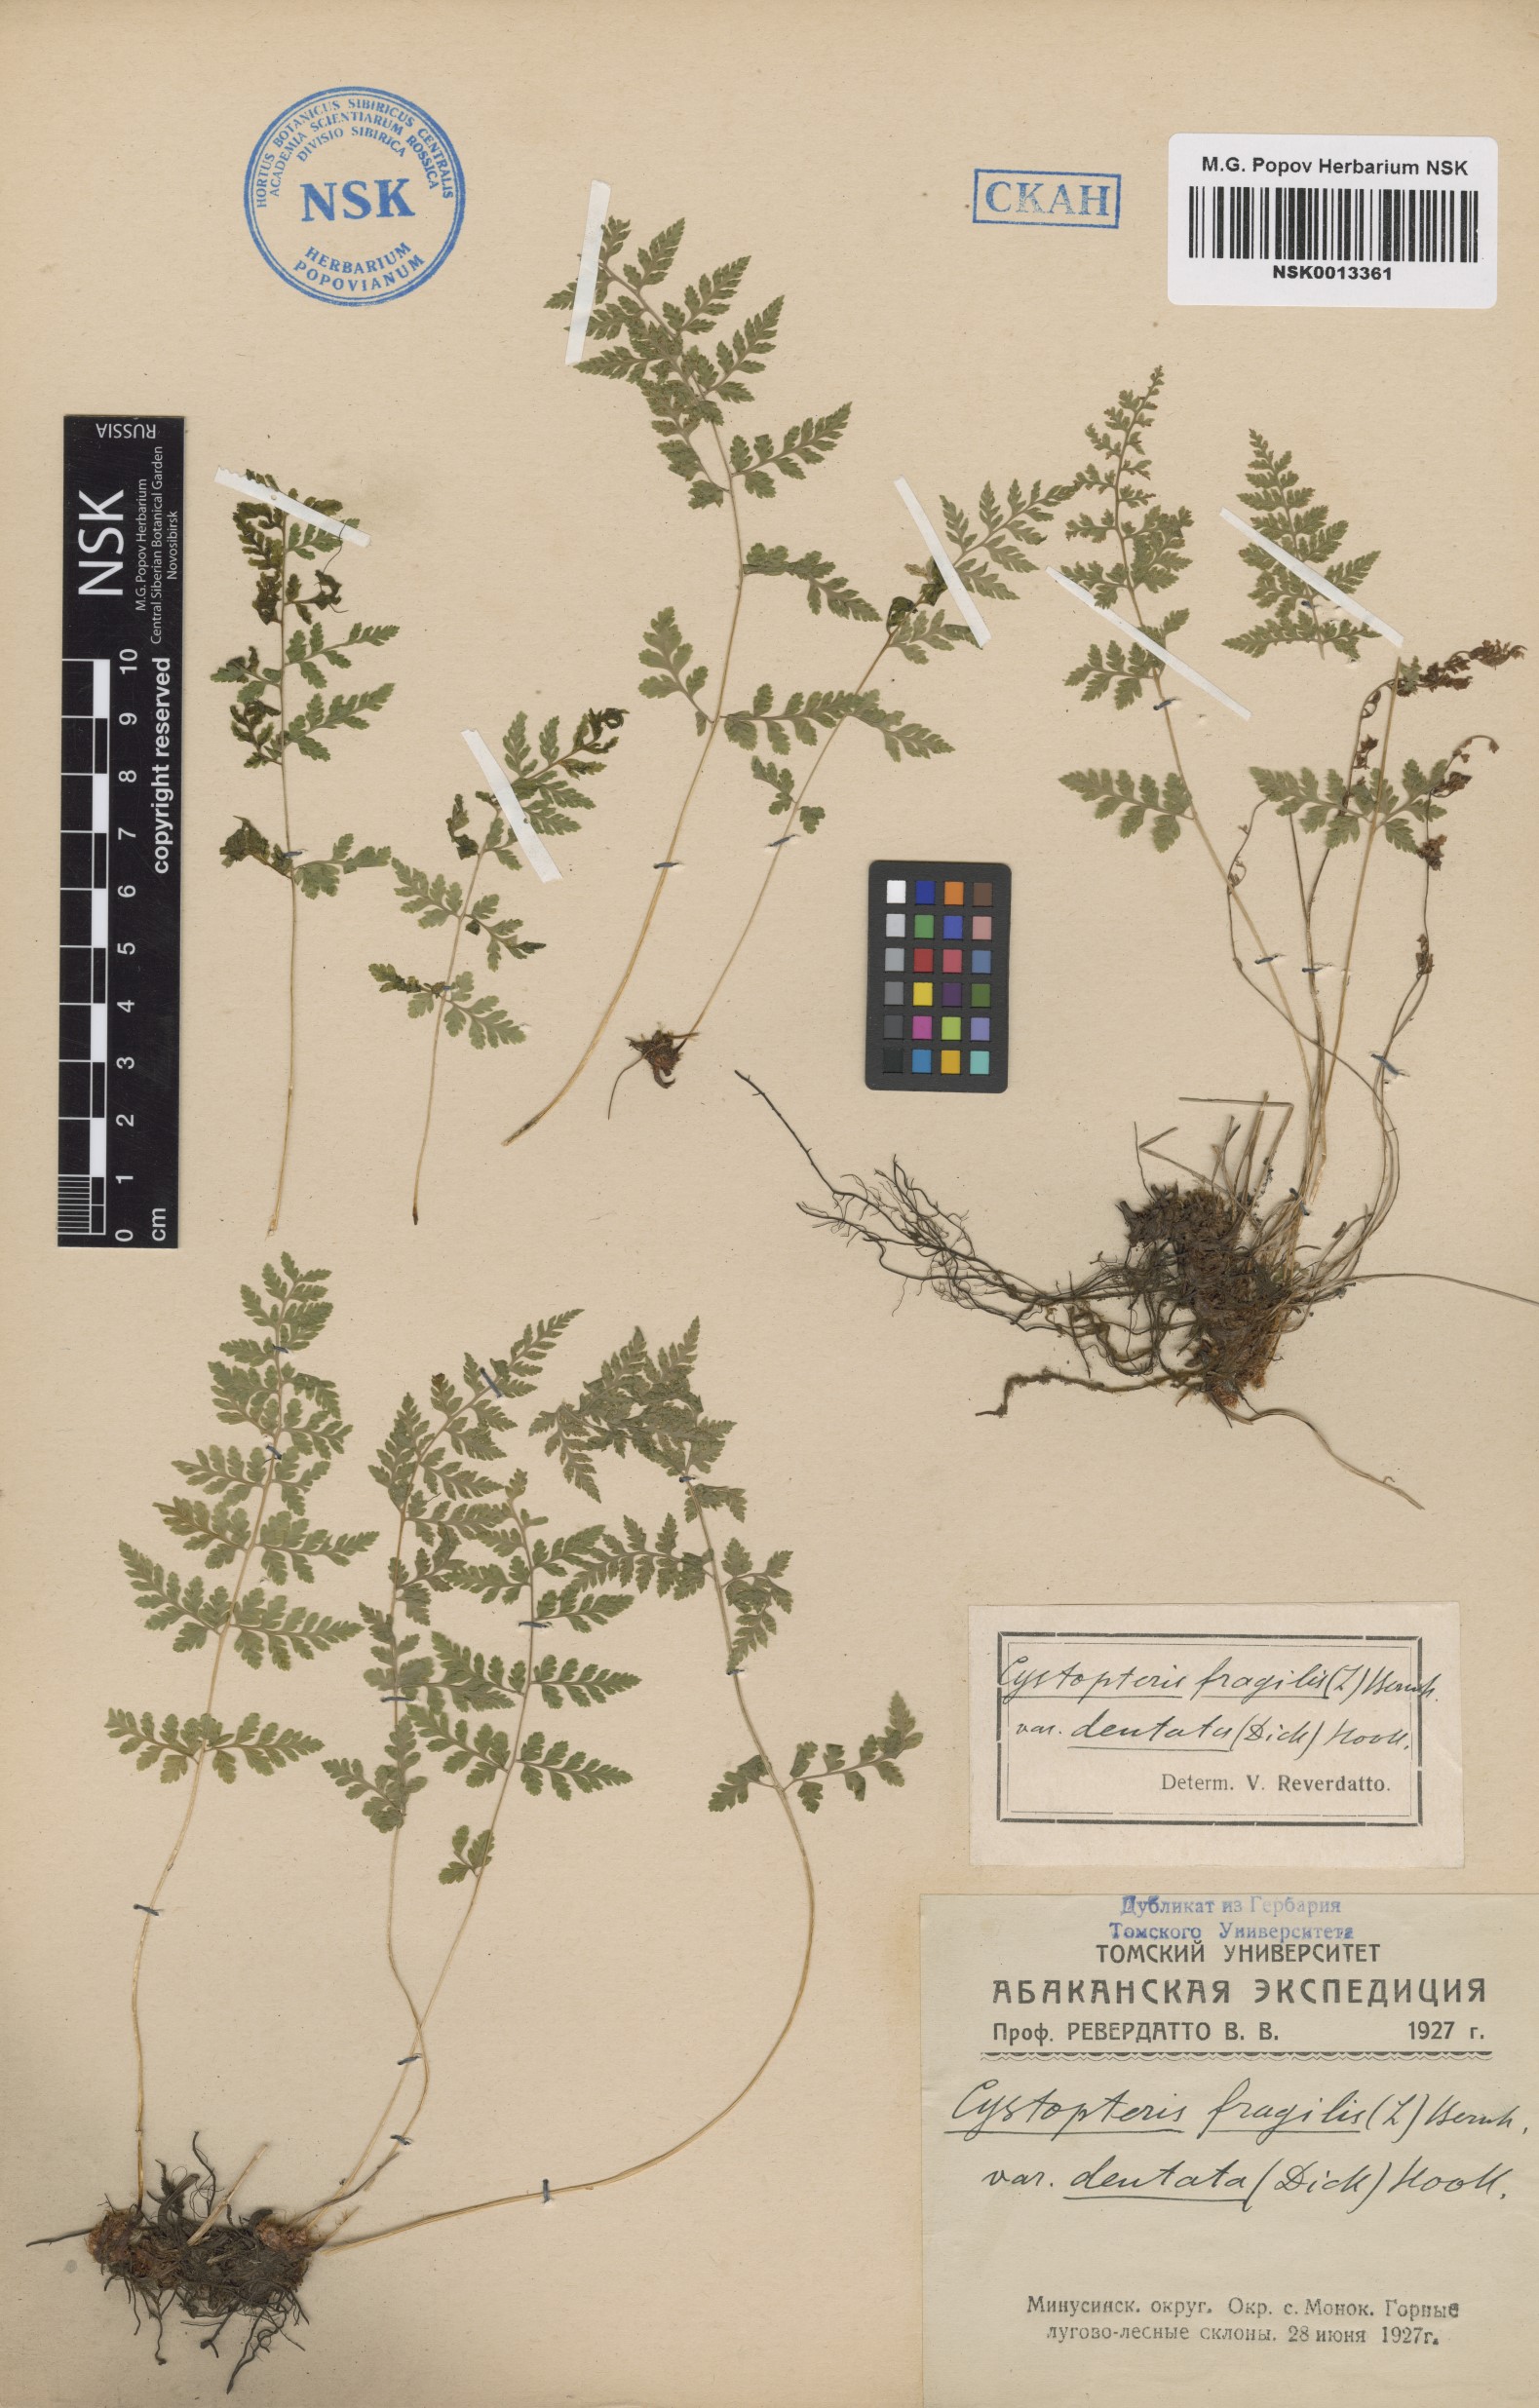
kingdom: Plantae
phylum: Tracheophyta
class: Polypodiopsida
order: Polypodiales
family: Cystopteridaceae
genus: Cystopteris
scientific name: Cystopteris fragilis
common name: Brittle bladder fern
